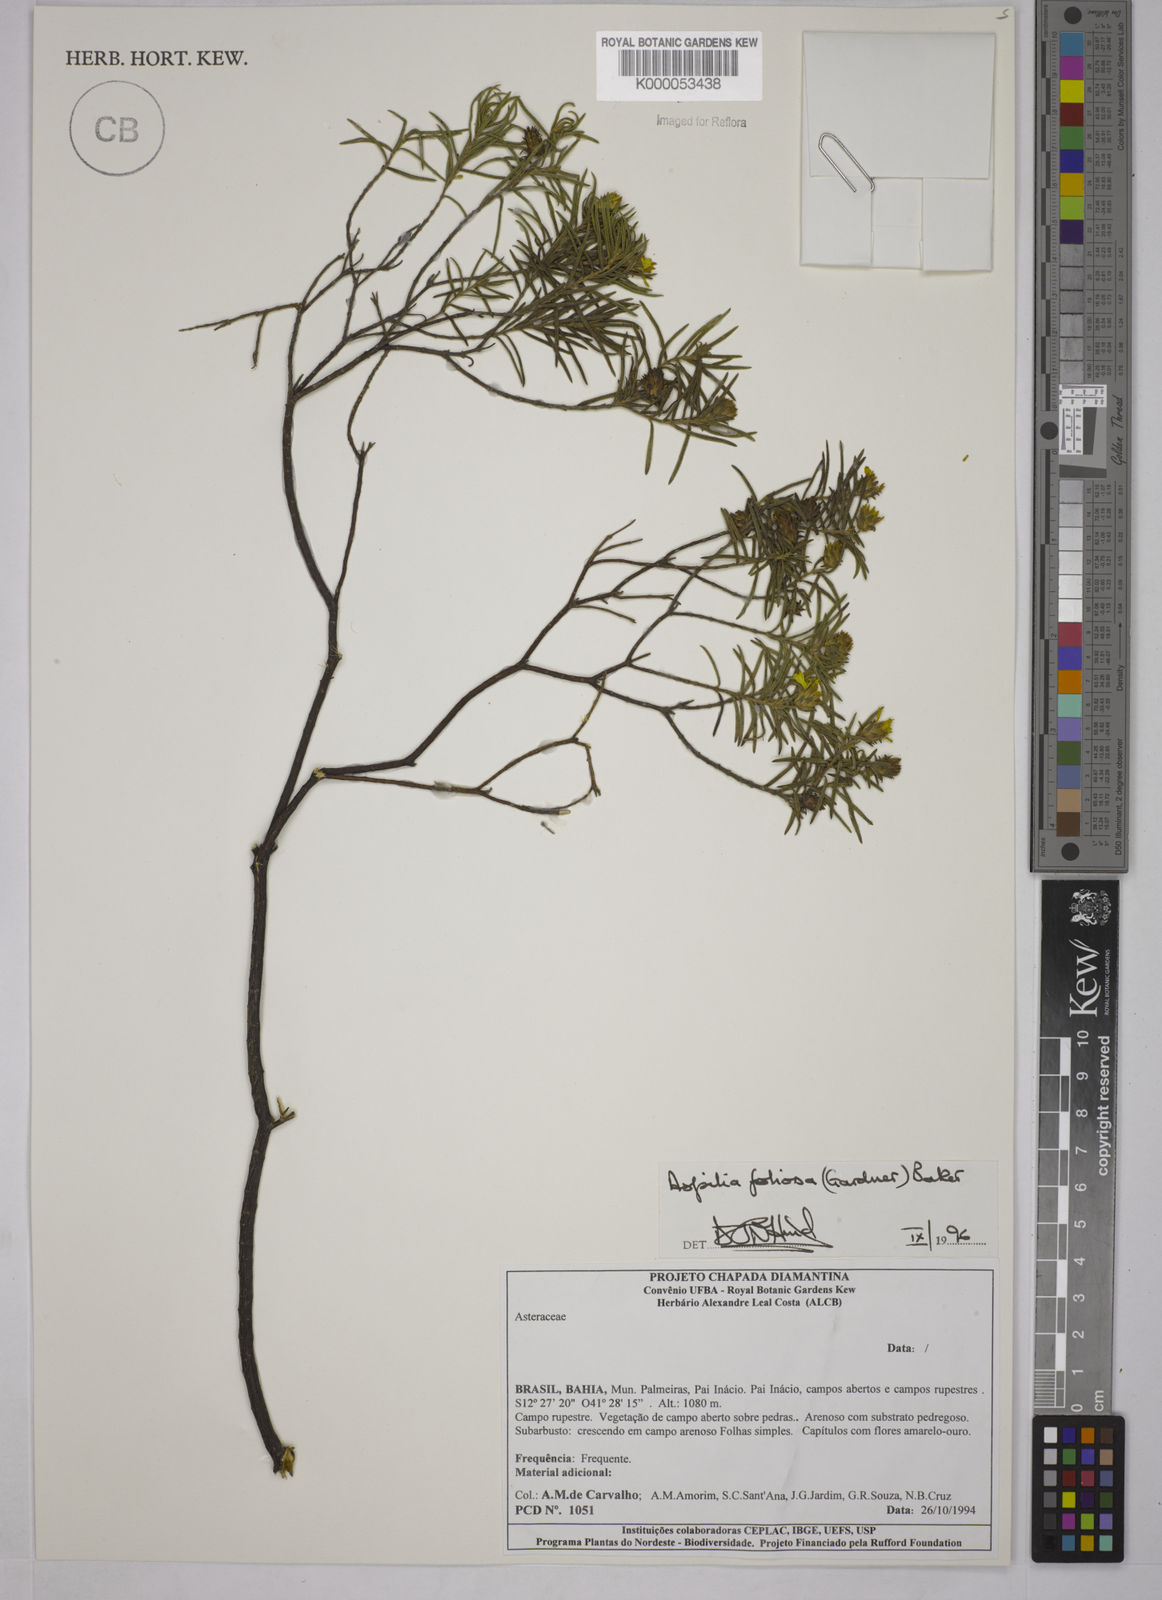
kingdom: Plantae
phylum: Tracheophyta
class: Magnoliopsida
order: Asterales
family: Asteraceae
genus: Aspilia
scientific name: Aspilia
